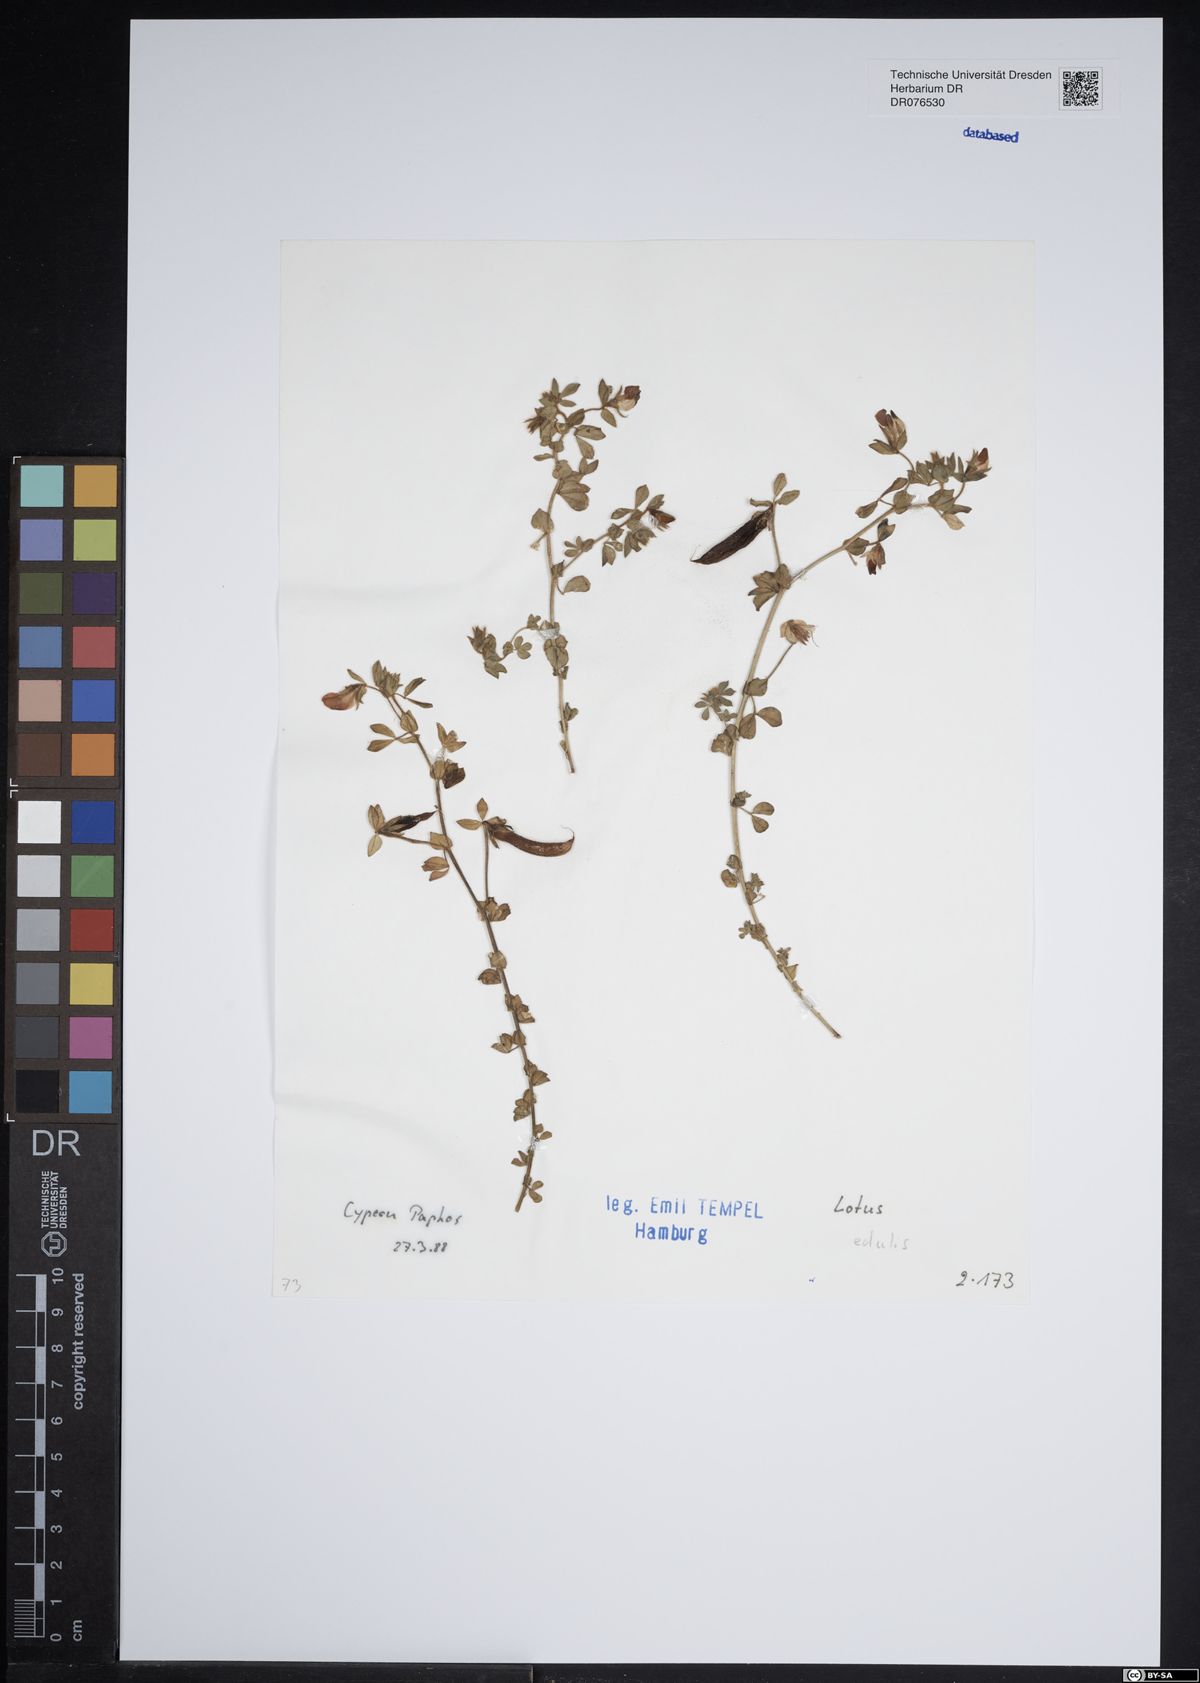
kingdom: Plantae
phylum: Tracheophyta
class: Magnoliopsida
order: Fabales
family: Fabaceae
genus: Lotus
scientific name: Lotus edulis
